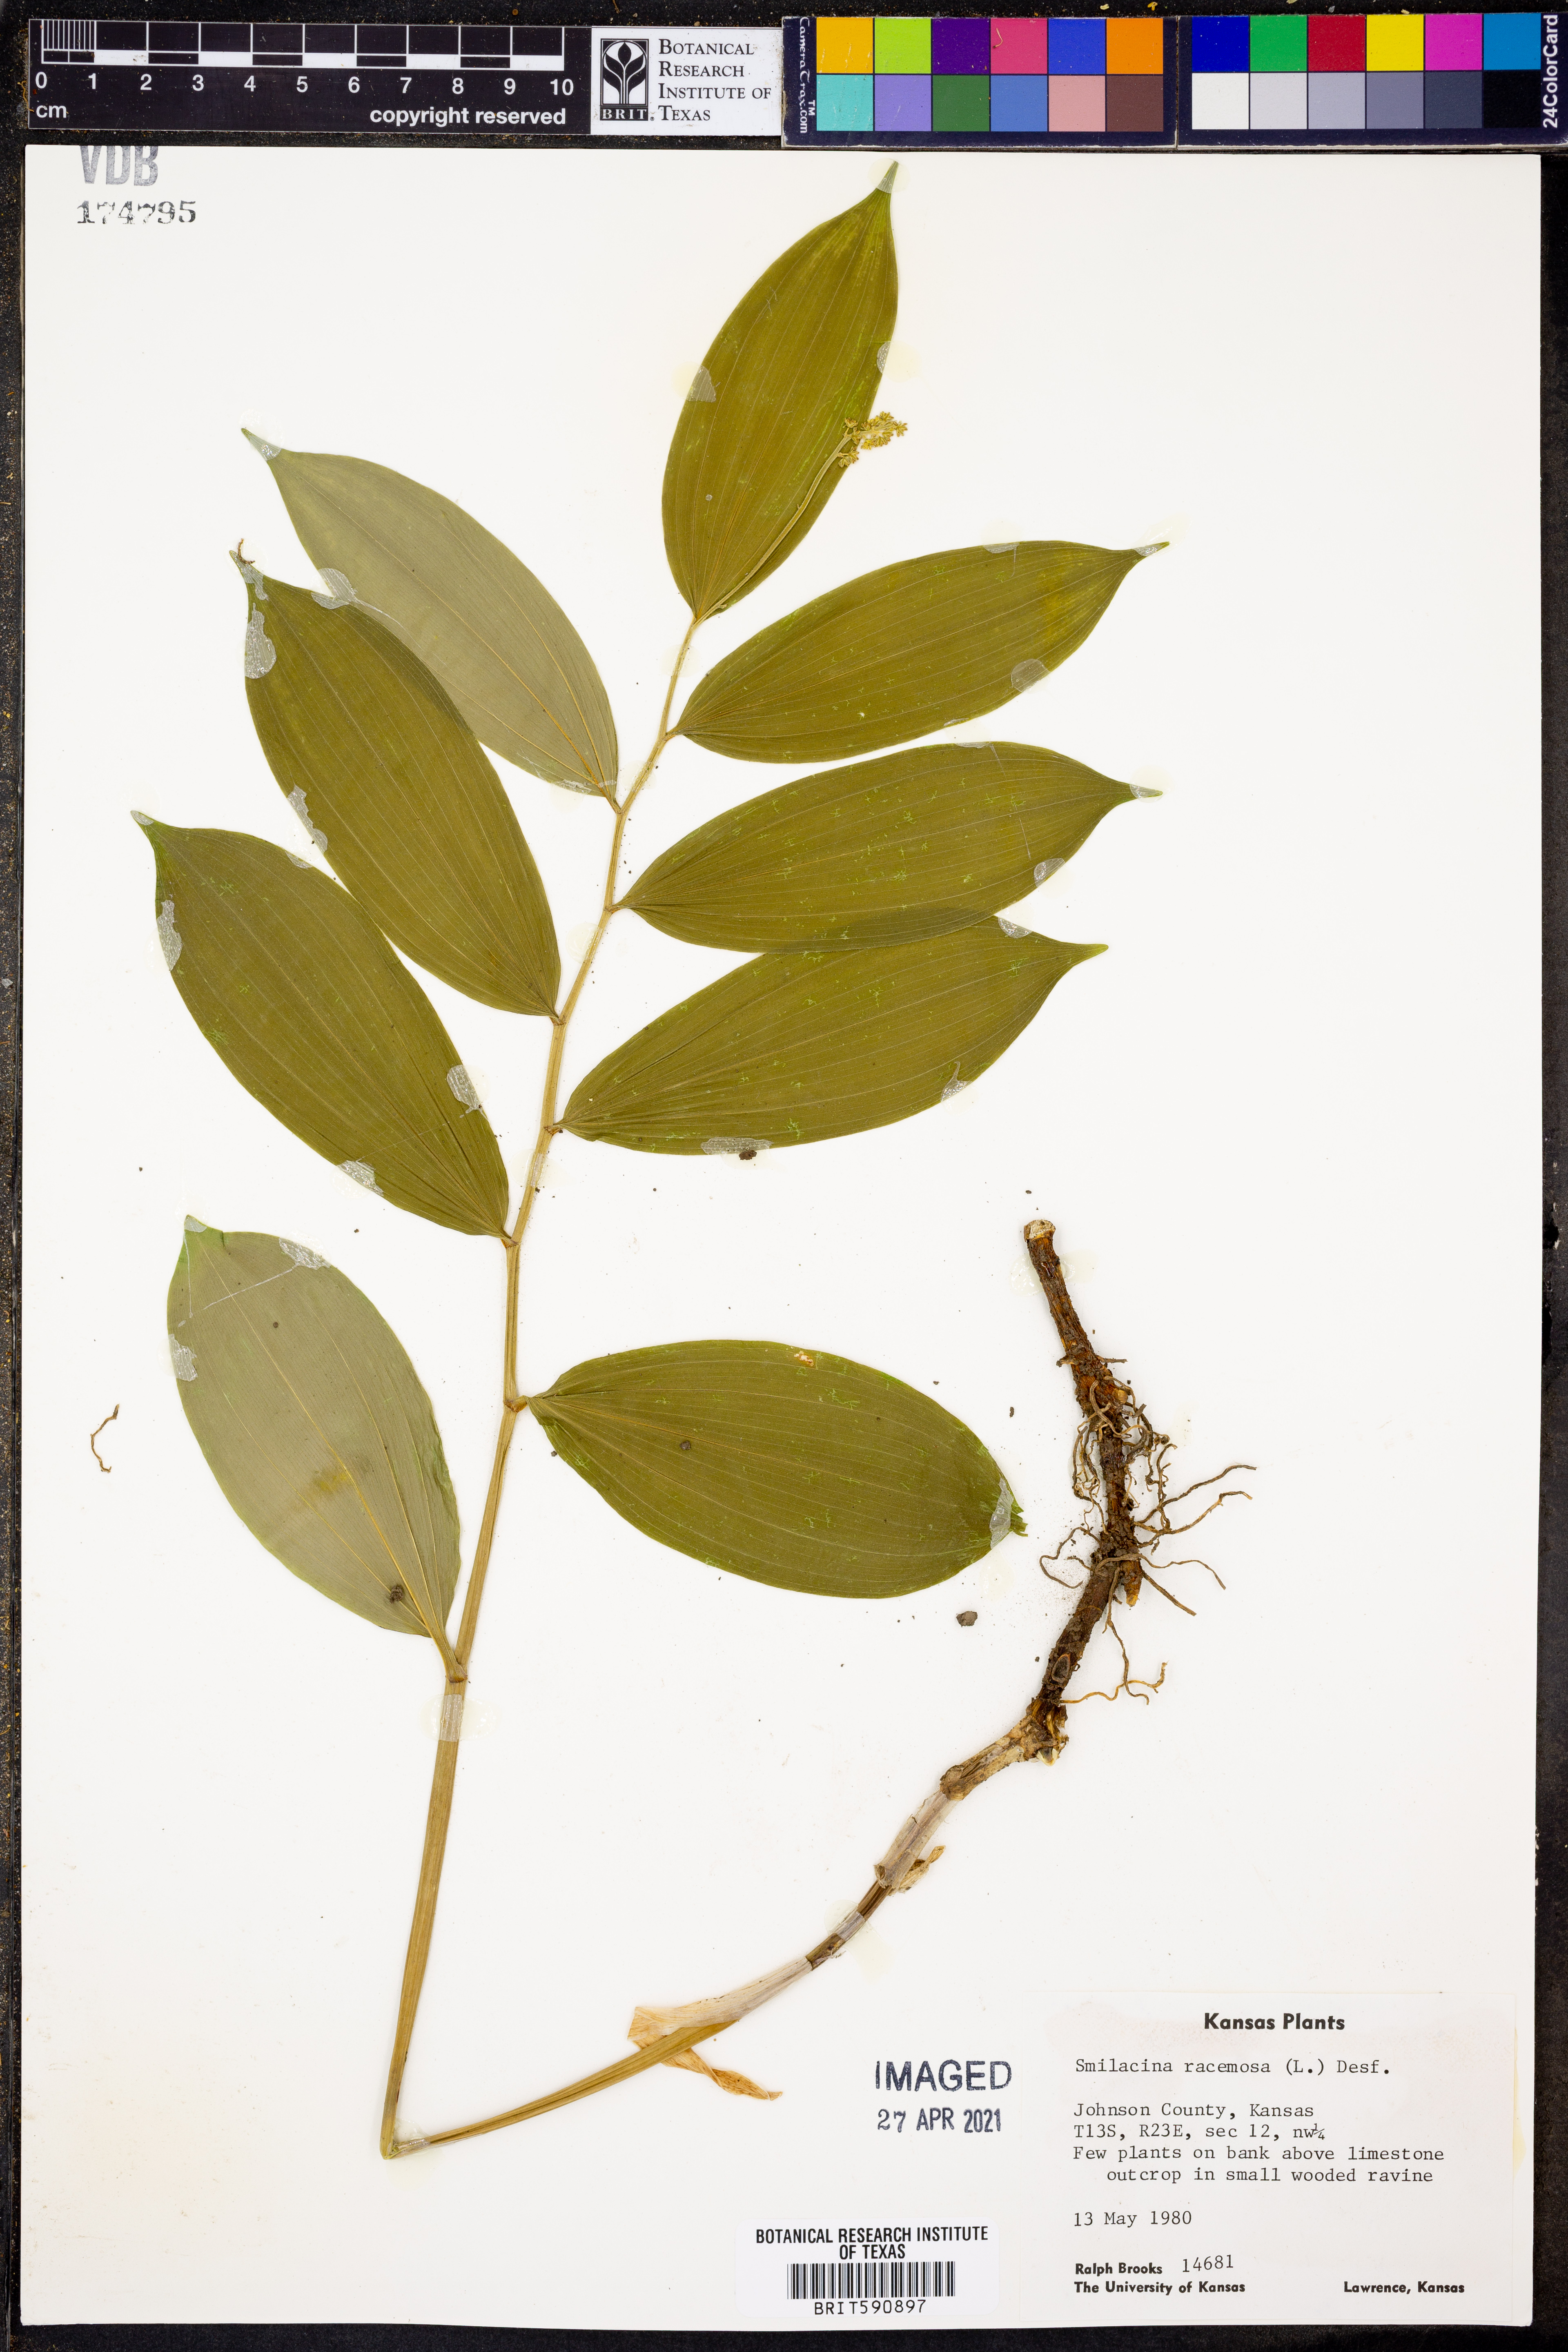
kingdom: Plantae
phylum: Tracheophyta
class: Liliopsida
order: Asparagales
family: Asparagaceae
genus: Maianthemum
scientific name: Maianthemum racemosum
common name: False spikenard
